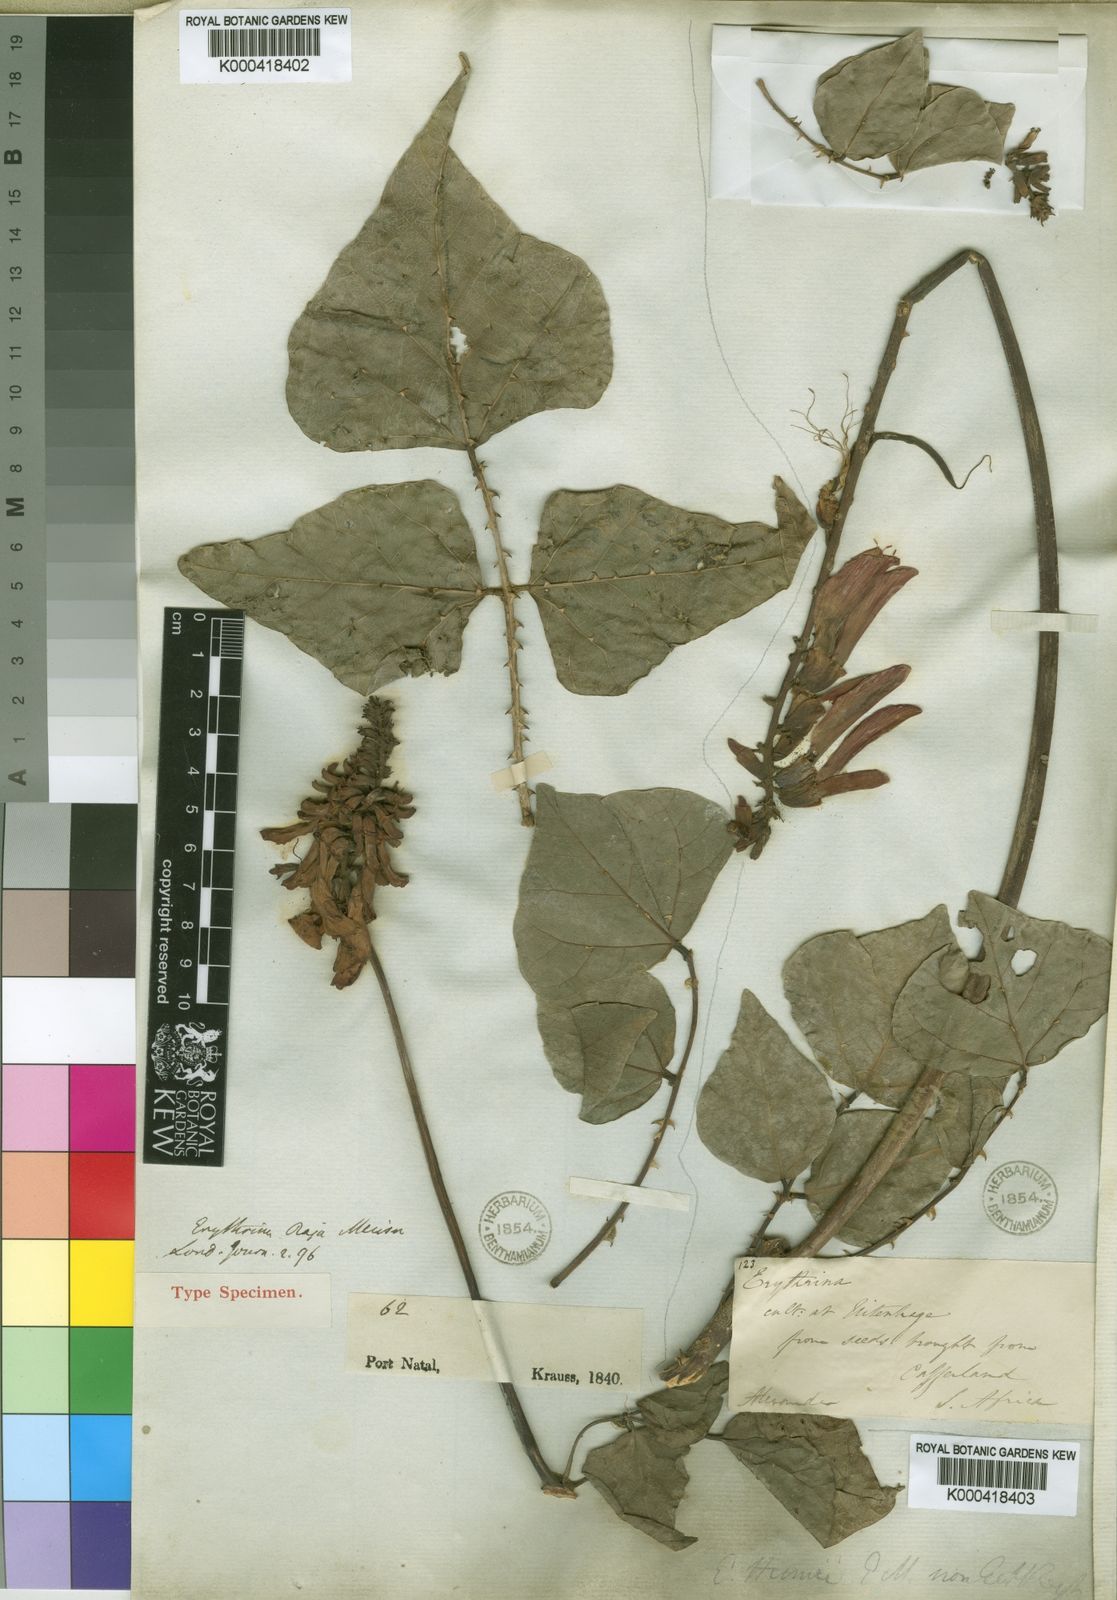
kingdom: Plantae
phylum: Tracheophyta
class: Magnoliopsida
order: Fabales
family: Fabaceae
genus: Erythrina
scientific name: Erythrina humeana
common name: Dwarf coral tree
